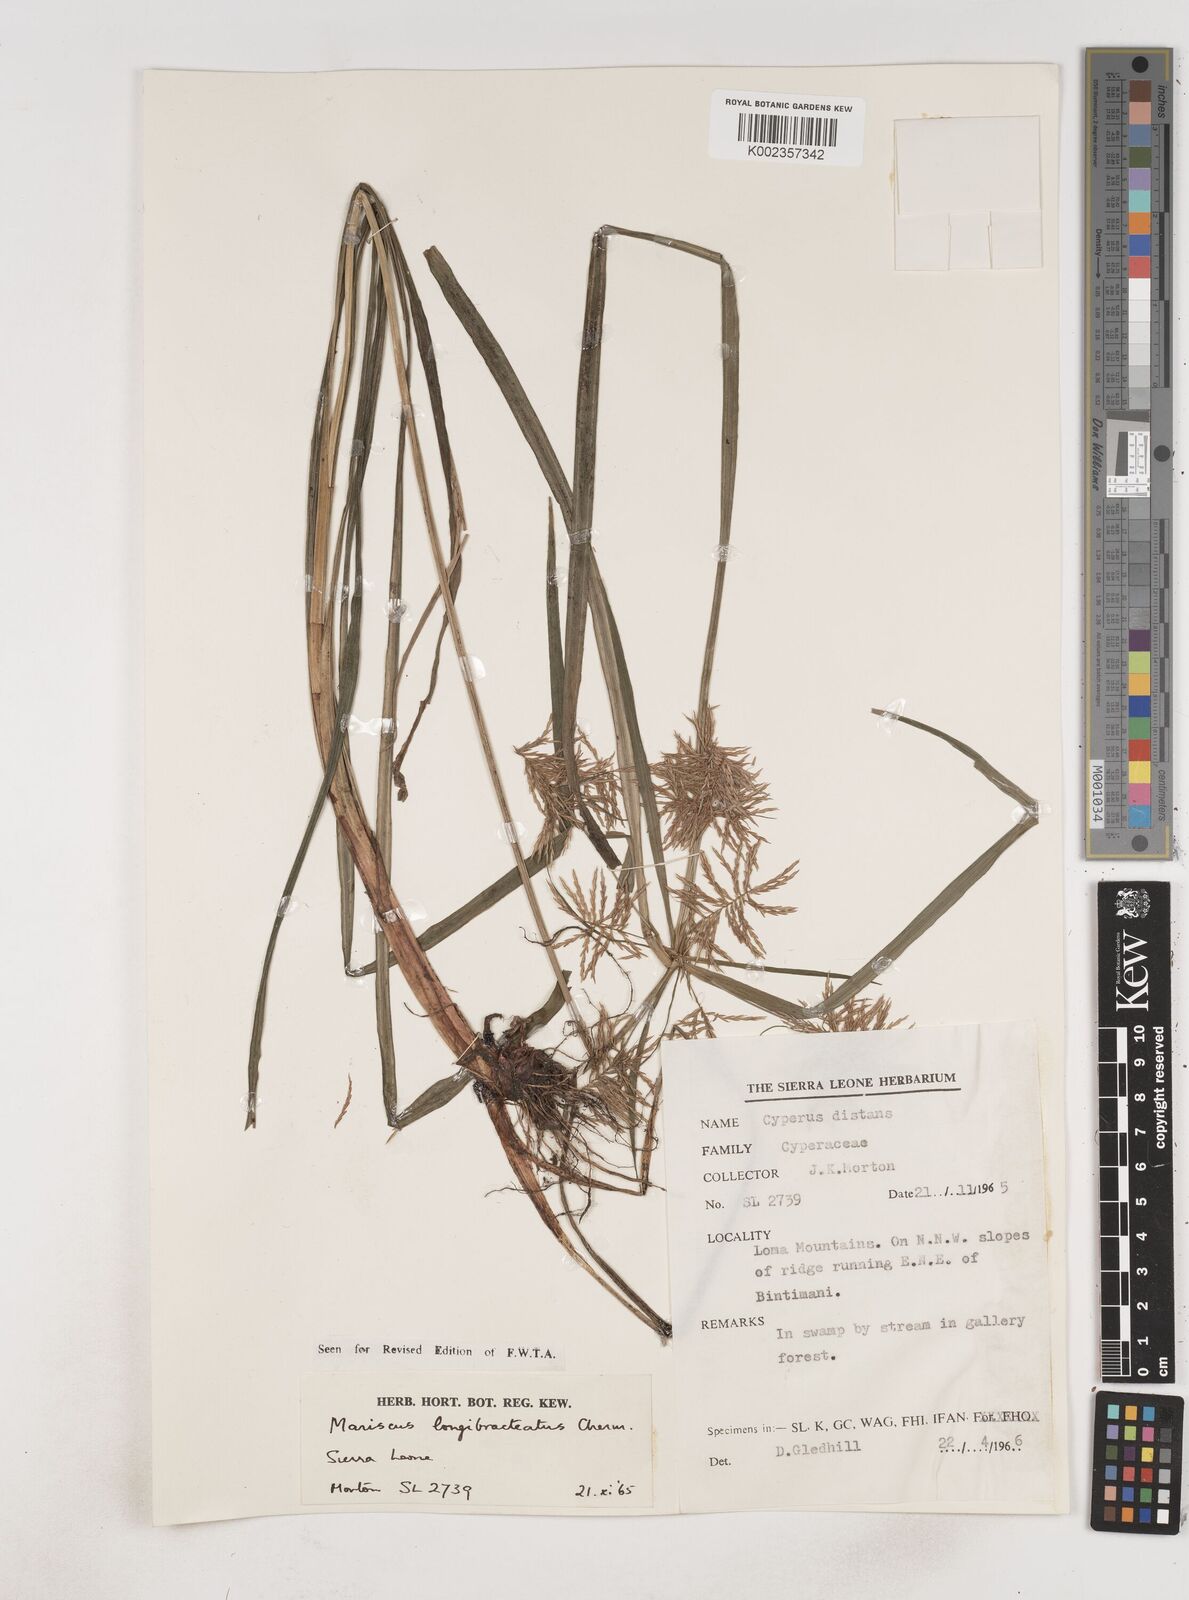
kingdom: Plantae
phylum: Tracheophyta
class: Liliopsida
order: Poales
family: Cyperaceae
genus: Cyperus
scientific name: Cyperus distans
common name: Slender cyperus
